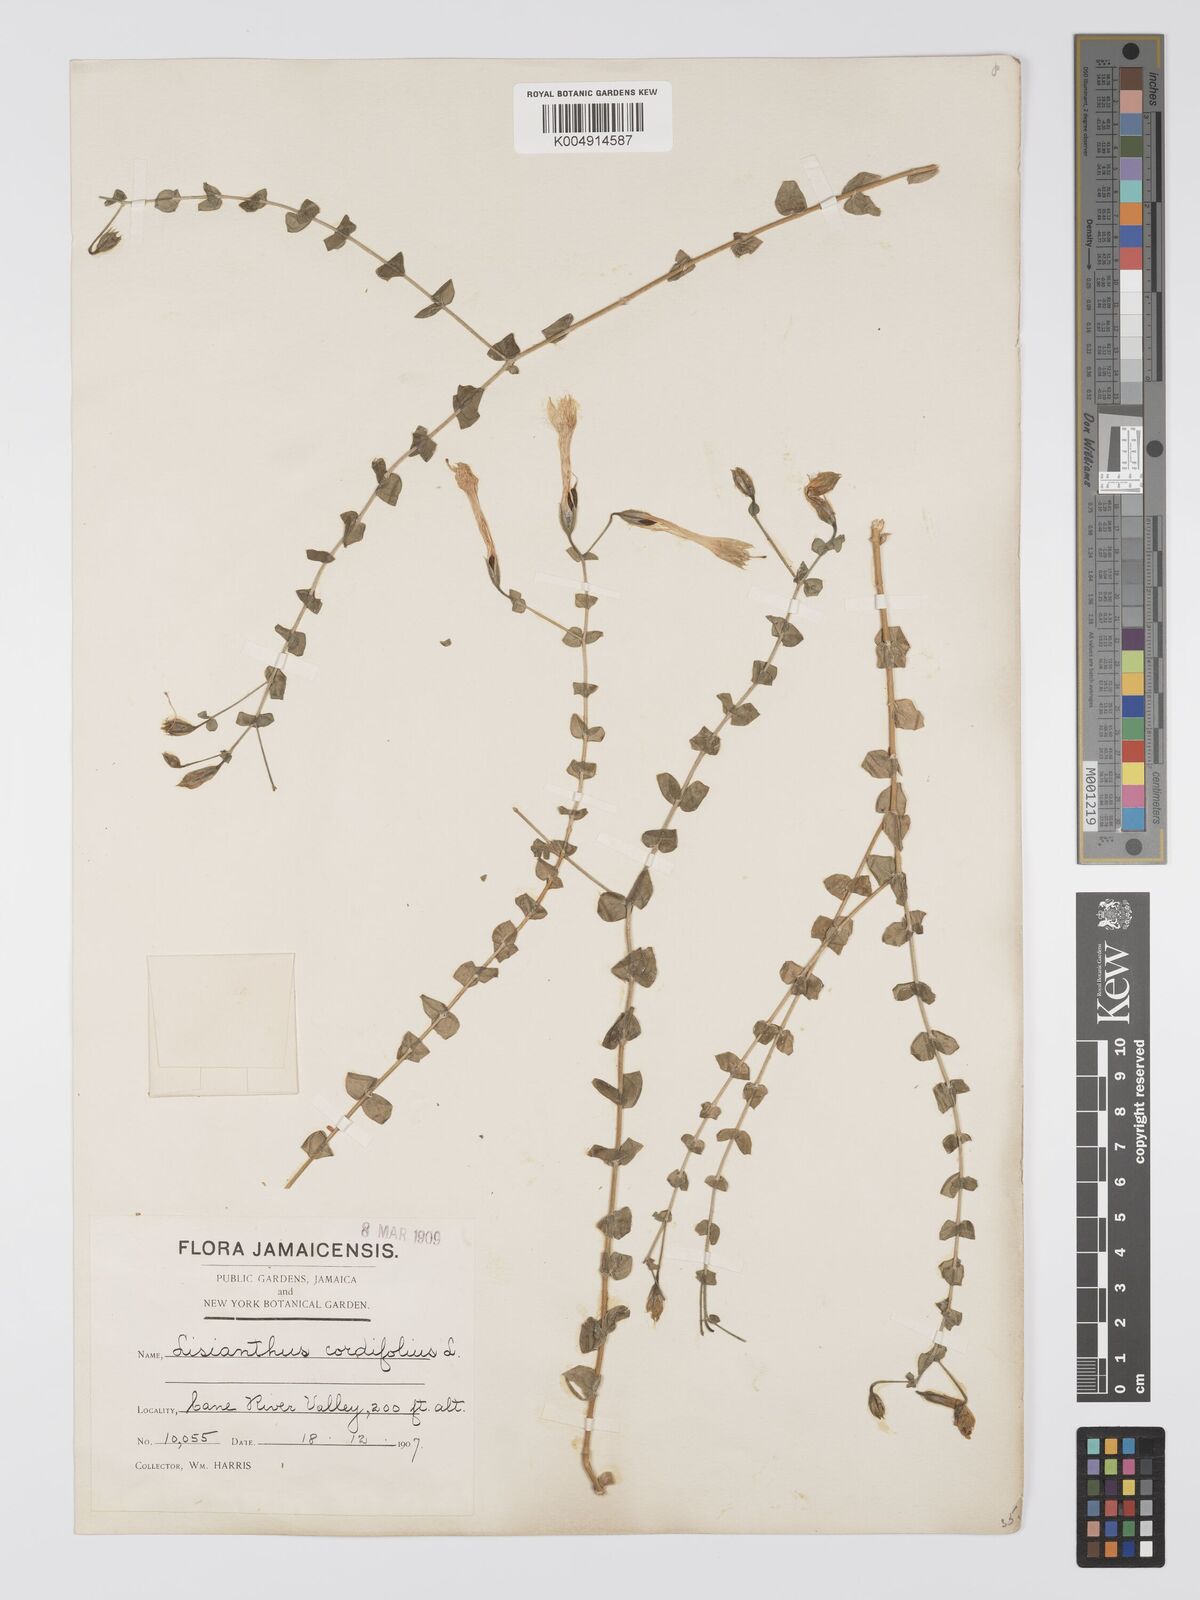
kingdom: Plantae
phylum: Tracheophyta
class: Magnoliopsida
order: Gentianales
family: Gentianaceae
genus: Lisianthus
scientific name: Lisianthus cordifolius
